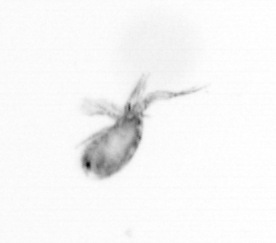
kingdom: Animalia
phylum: Arthropoda
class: Copepoda
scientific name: Copepoda
